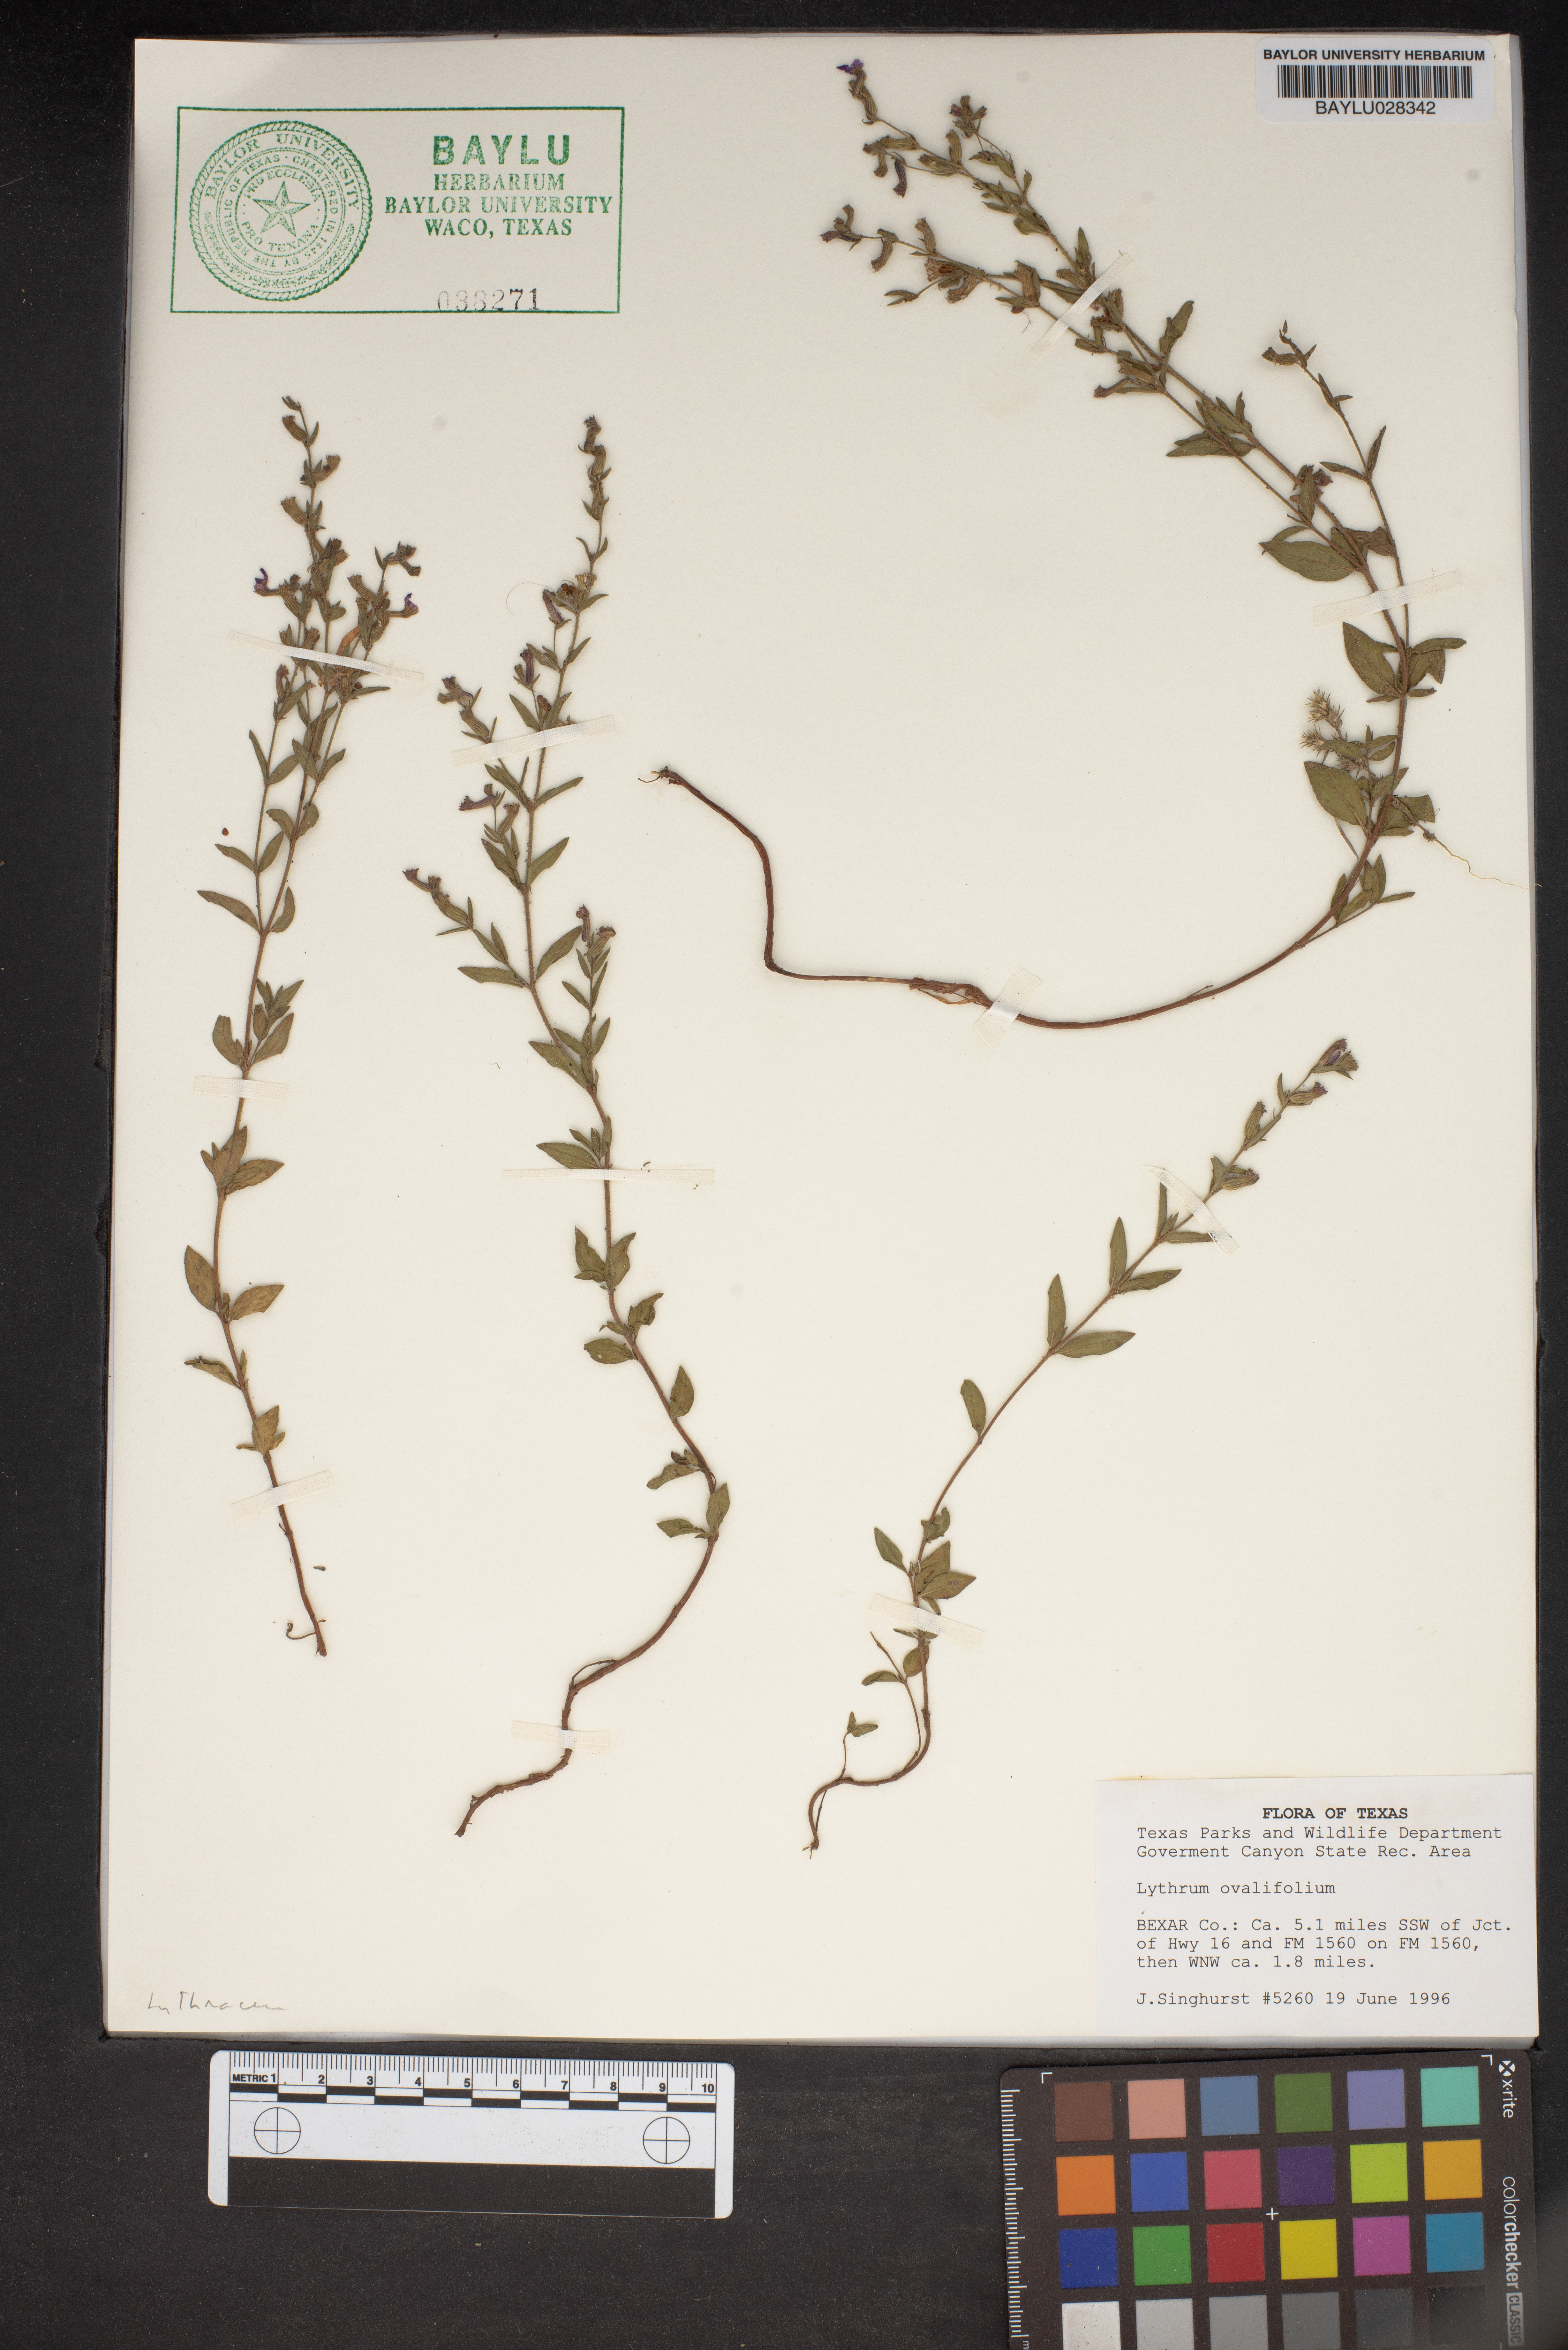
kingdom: Plantae
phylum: Tracheophyta
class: Magnoliopsida
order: Myrtales
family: Lythraceae
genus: Lythrum
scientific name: Lythrum ovalifolium
